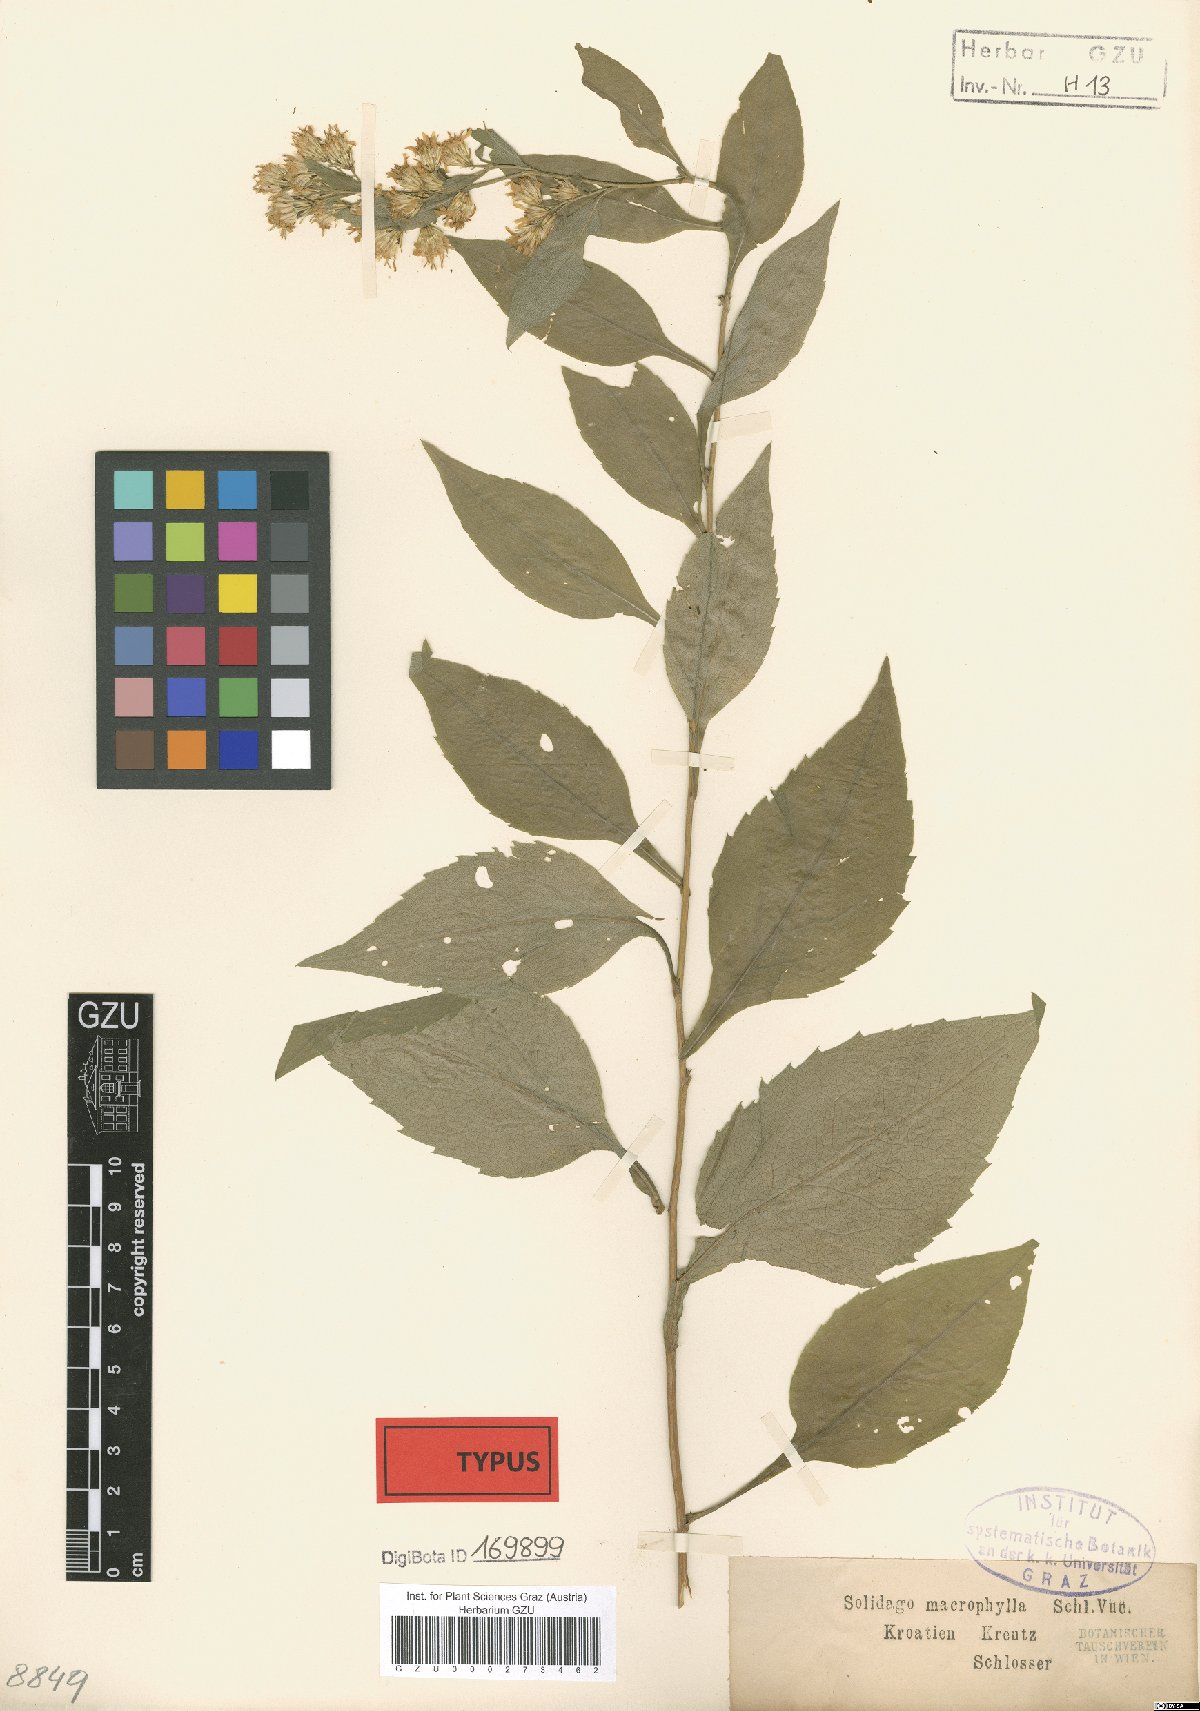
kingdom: Plantae
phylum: Tracheophyta
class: Magnoliopsida
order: Asterales
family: Asteraceae
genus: Solidago
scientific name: Solidago virgaurea
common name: Goldenrod
